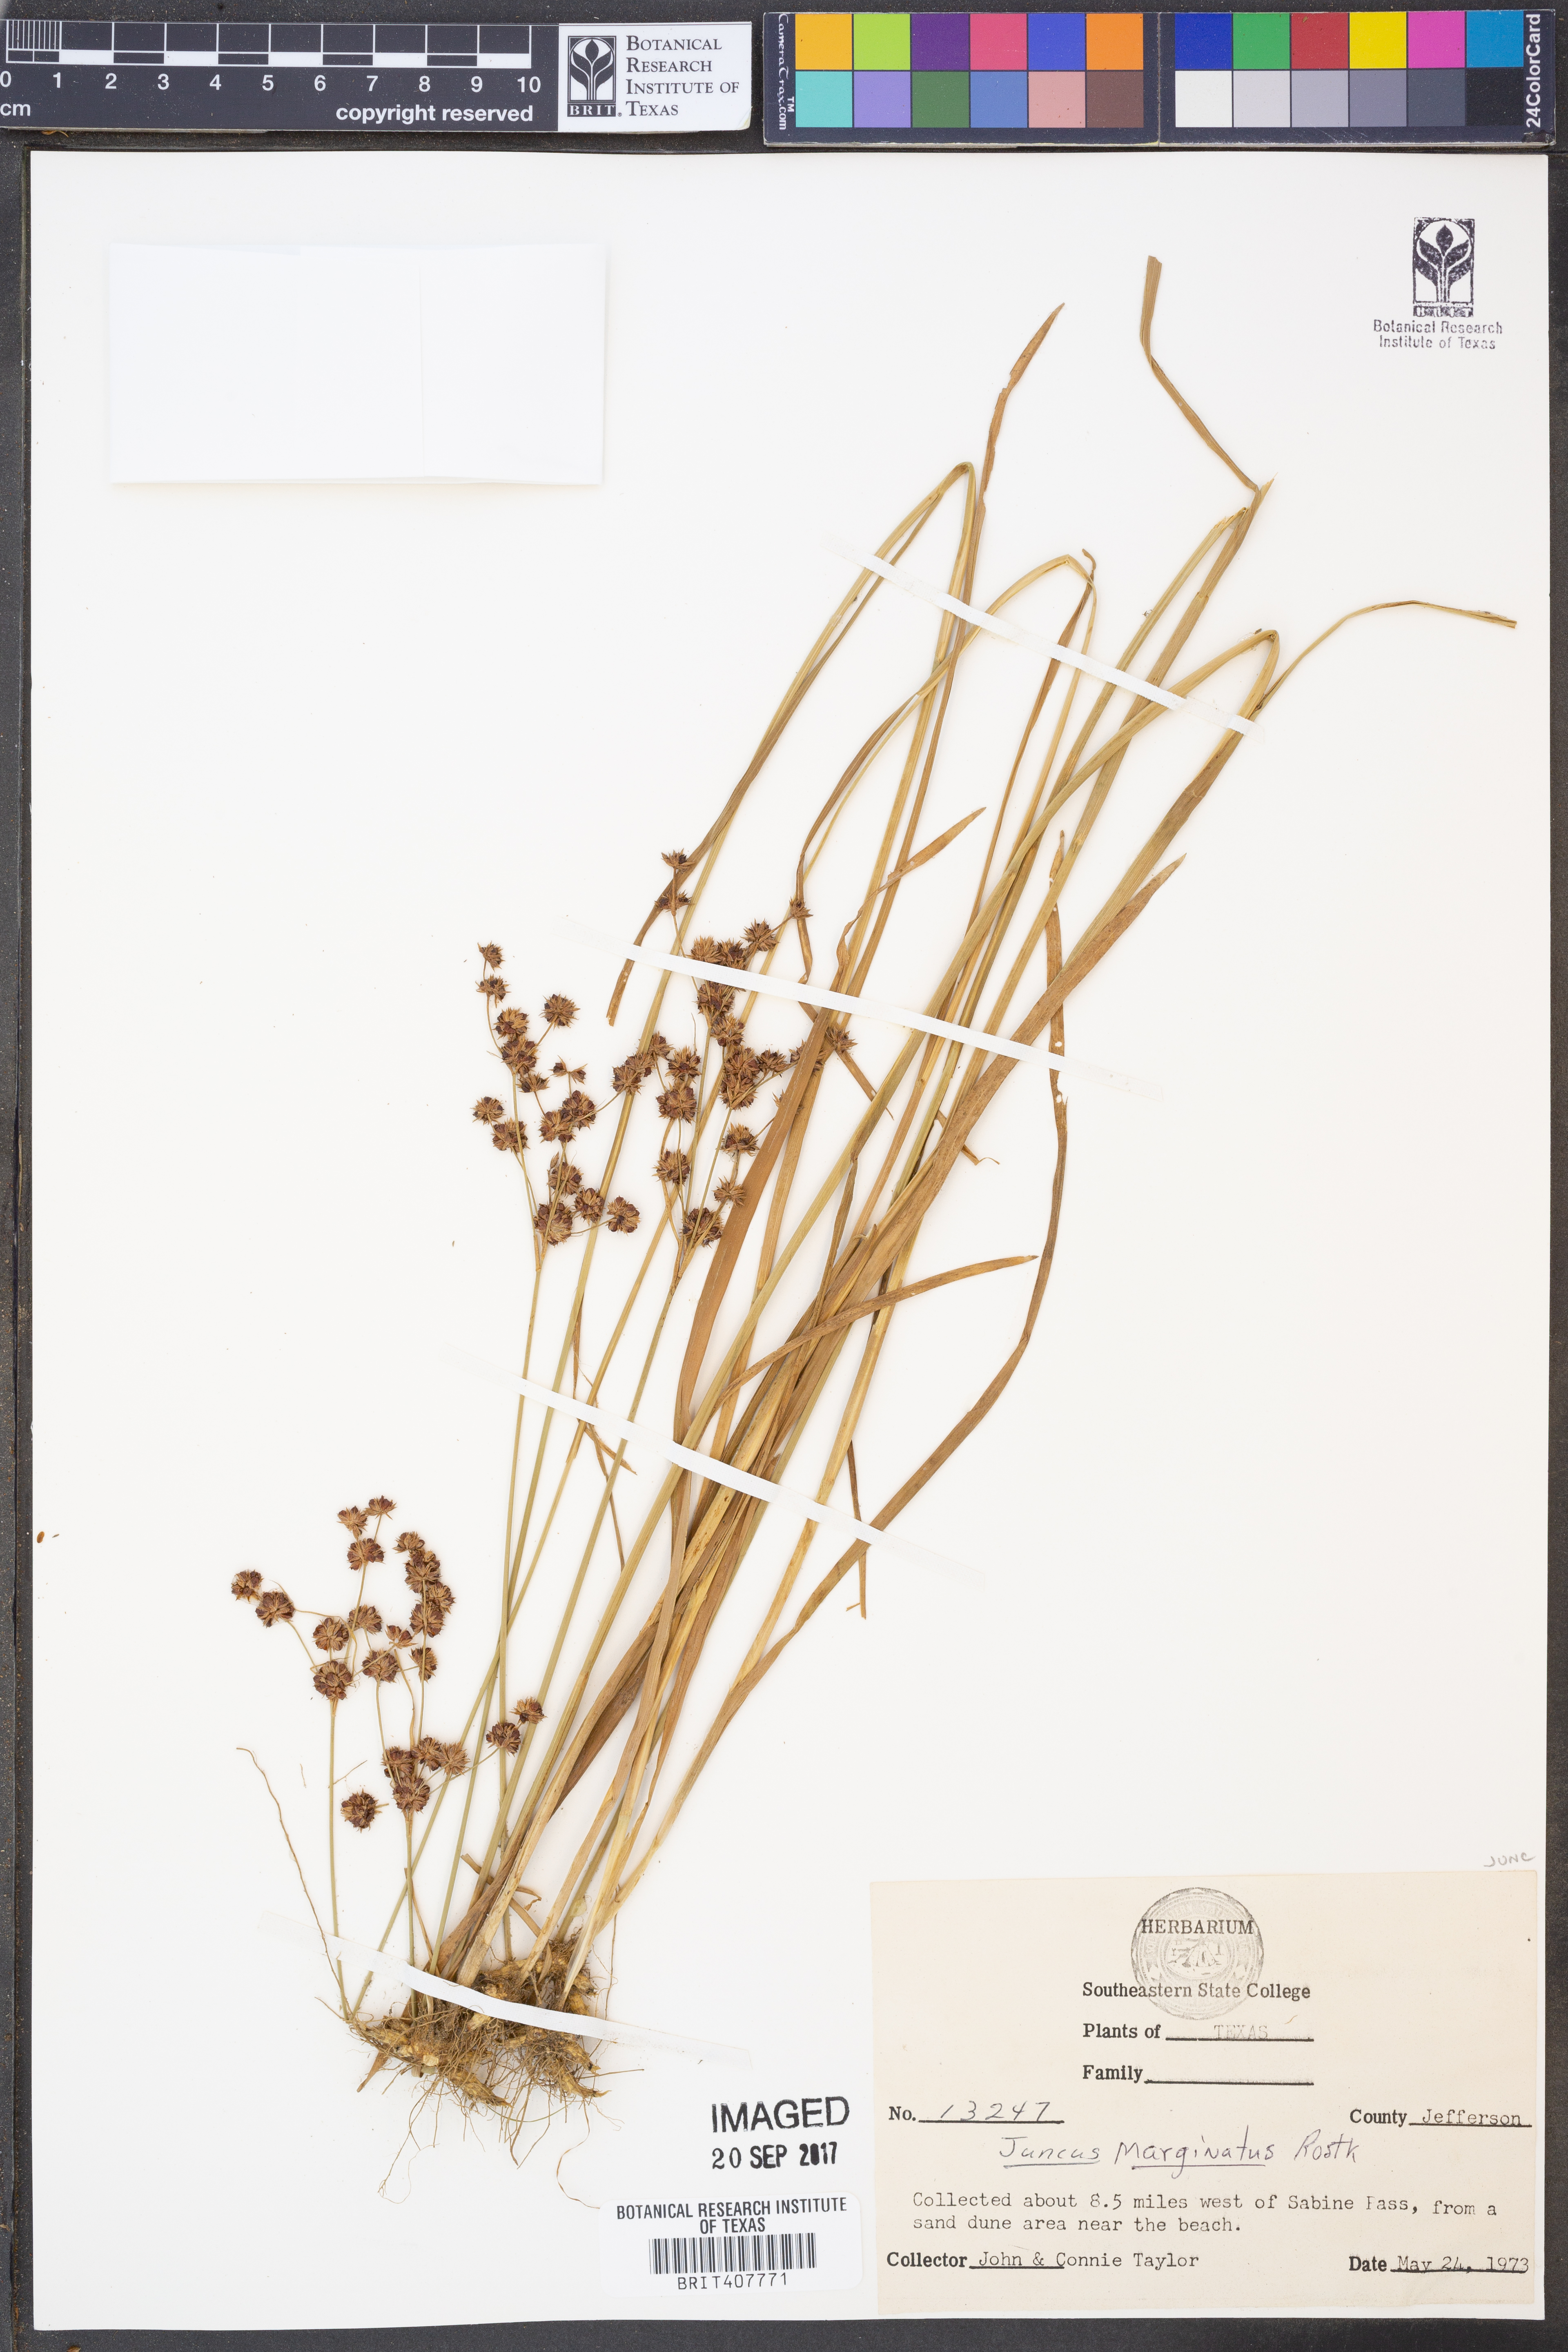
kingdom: Plantae
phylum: Tracheophyta
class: Liliopsida
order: Poales
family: Juncaceae
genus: Juncus
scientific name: Juncus marginatus
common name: Grass-leaf rush
